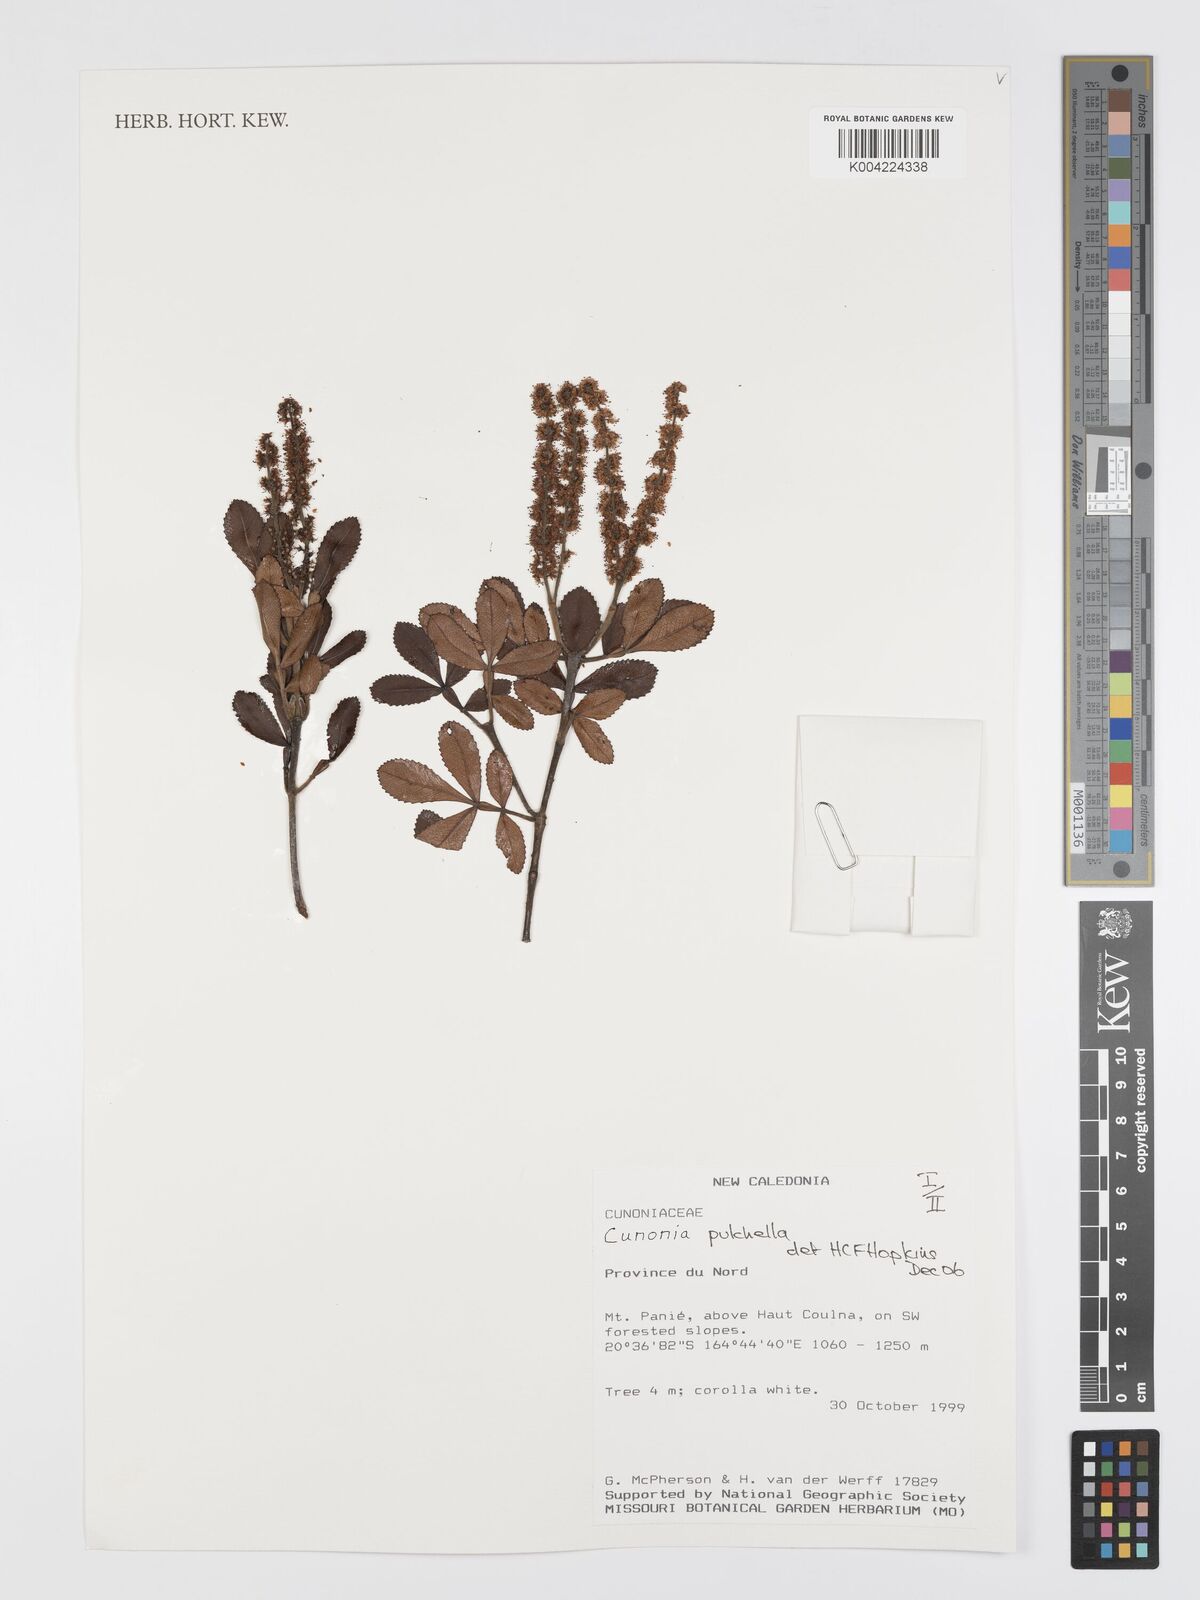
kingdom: Plantae
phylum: Tracheophyta
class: Magnoliopsida
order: Oxalidales
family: Cunoniaceae
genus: Cunonia
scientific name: Cunonia pulchella
